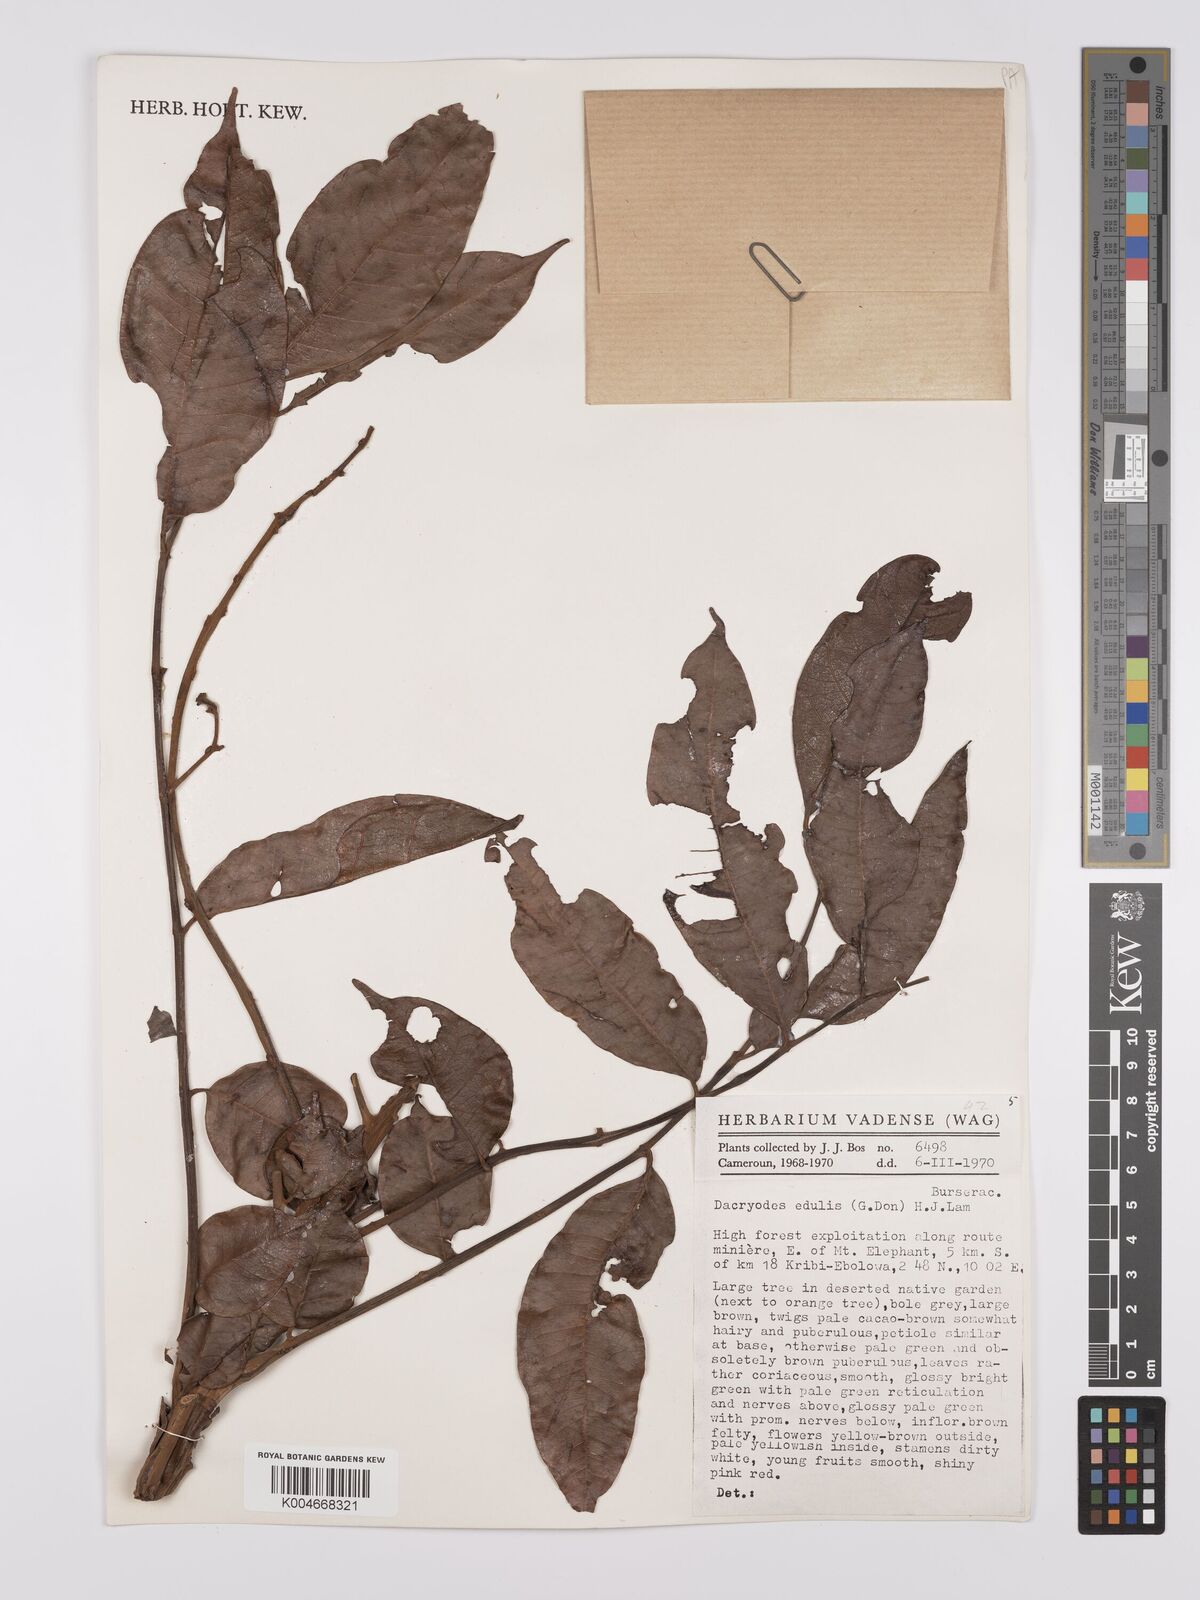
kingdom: Plantae
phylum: Tracheophyta
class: Magnoliopsida
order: Sapindales
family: Burseraceae
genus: Pachylobus
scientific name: Pachylobus edulis
